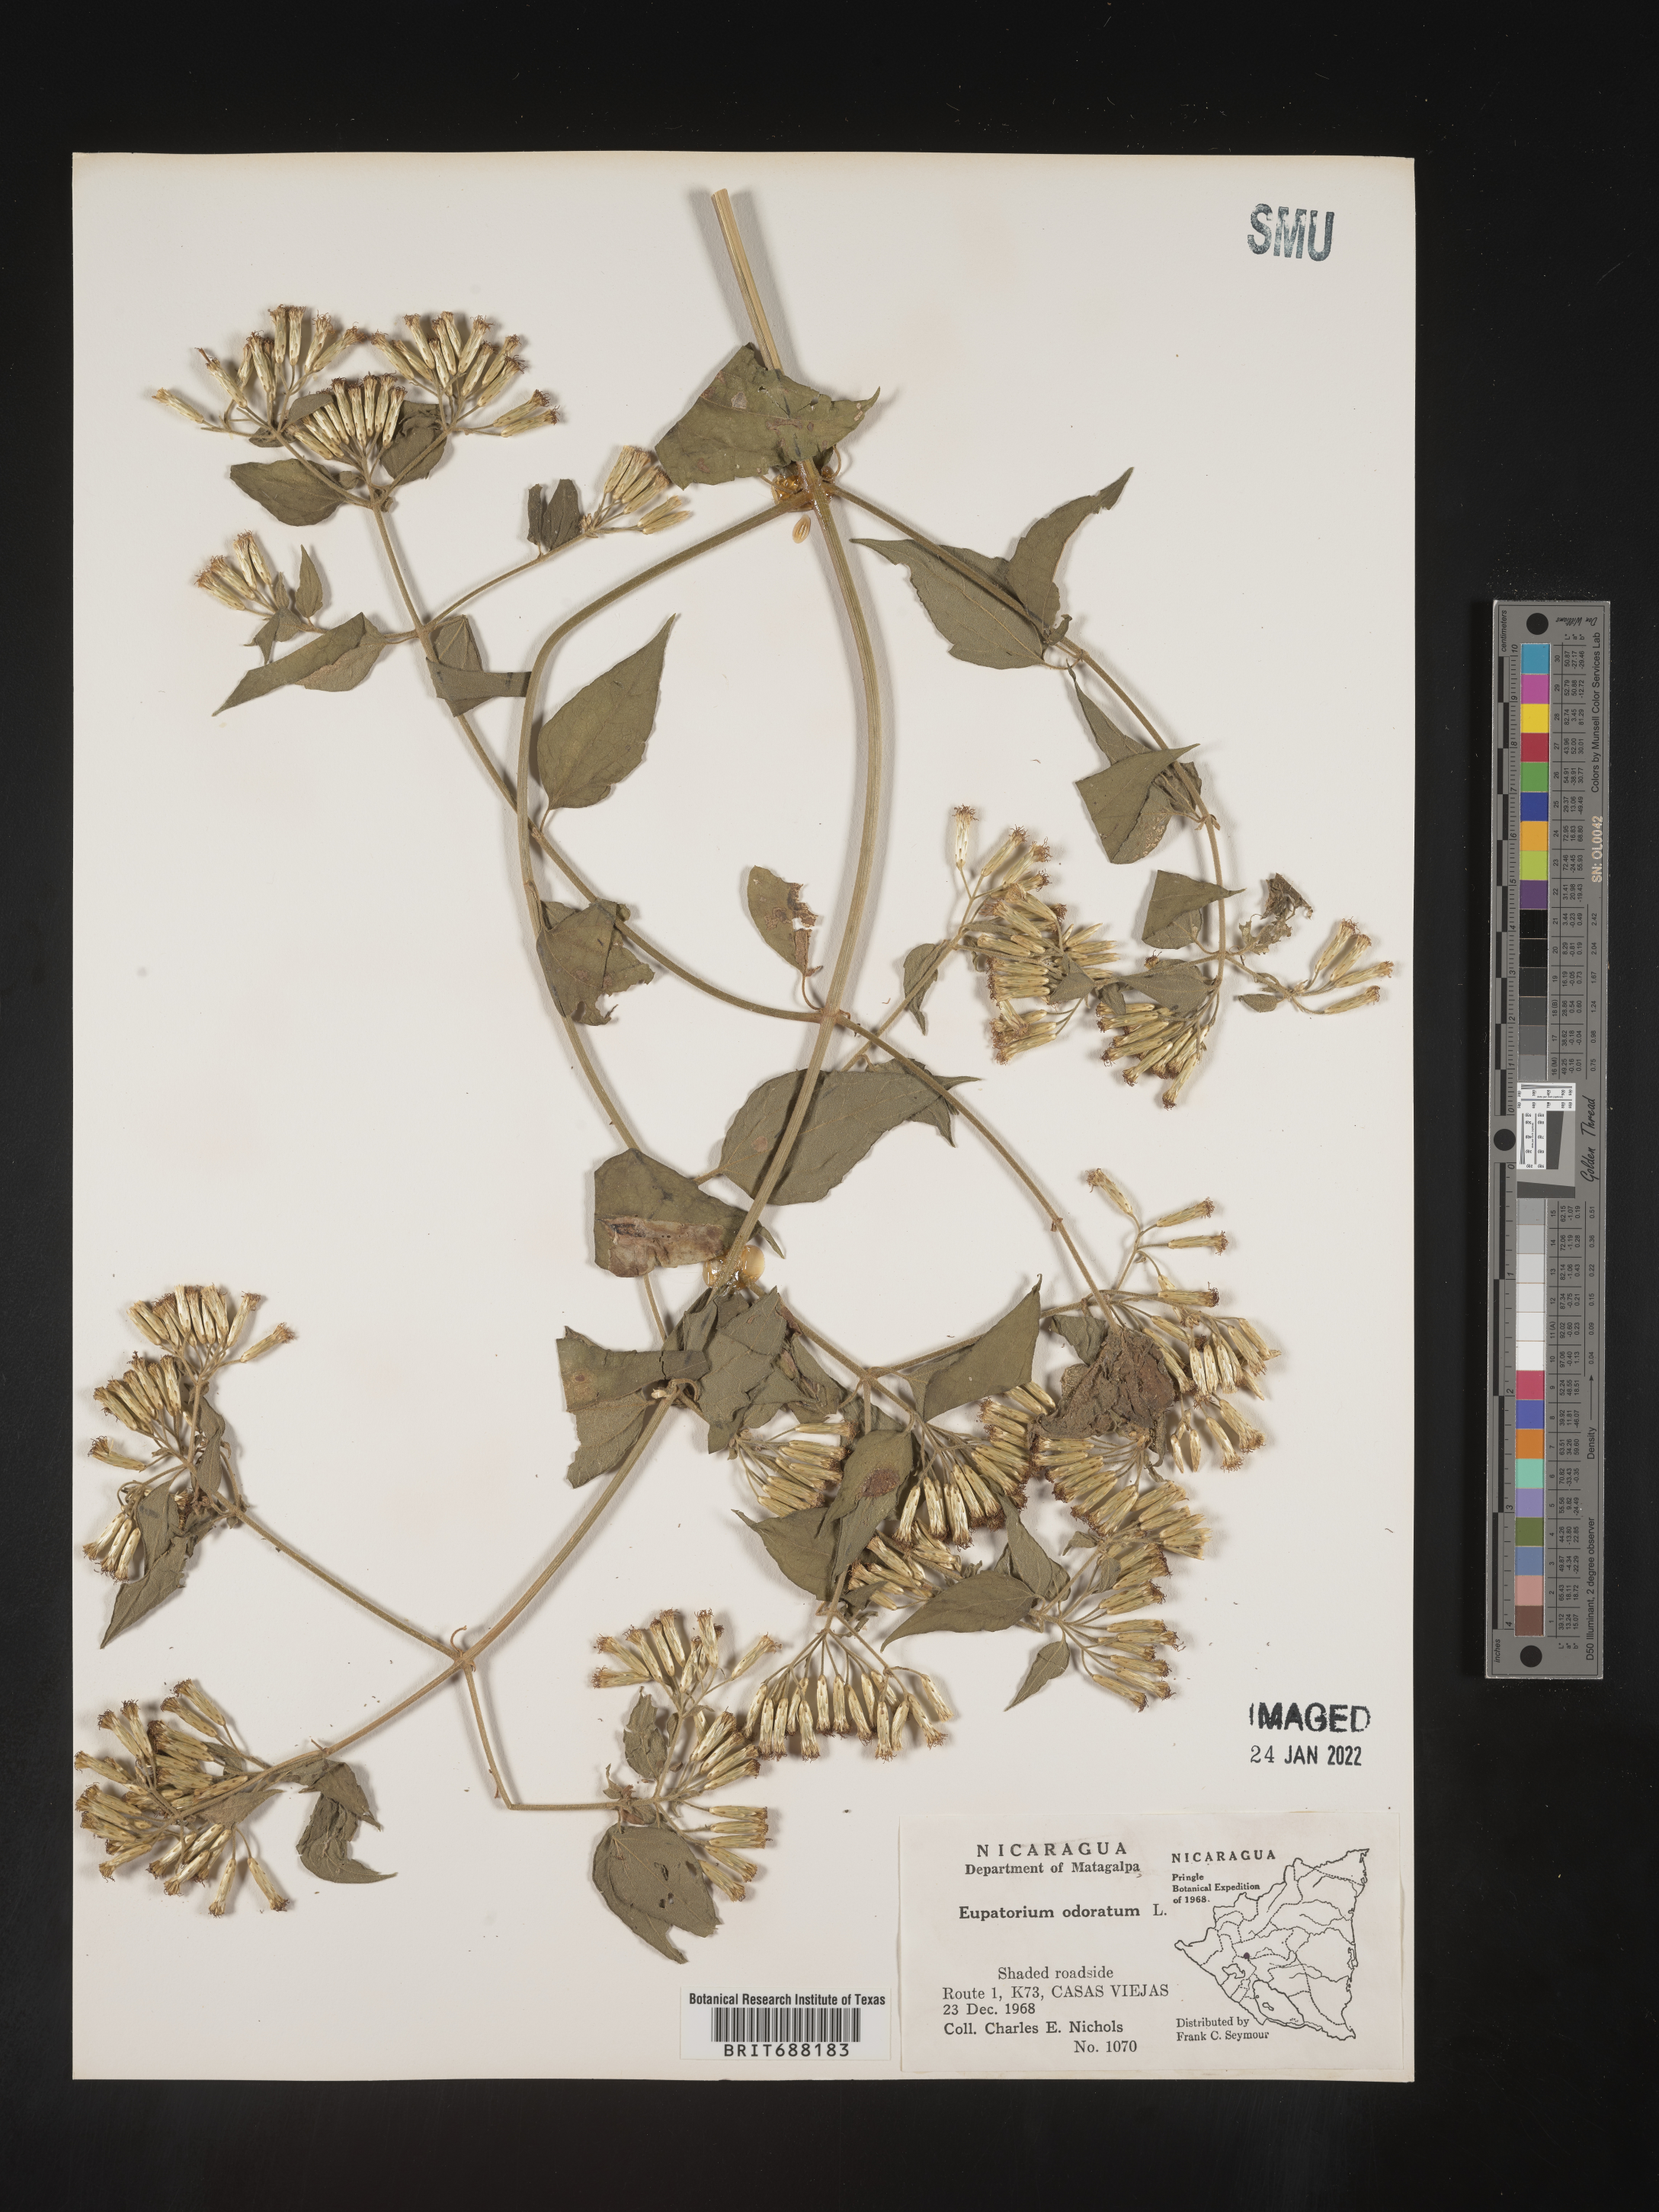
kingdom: Plantae
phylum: Tracheophyta
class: Magnoliopsida
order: Asterales
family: Asteraceae
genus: Chromolaena
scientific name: Chromolaena odorata
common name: Siamweed
